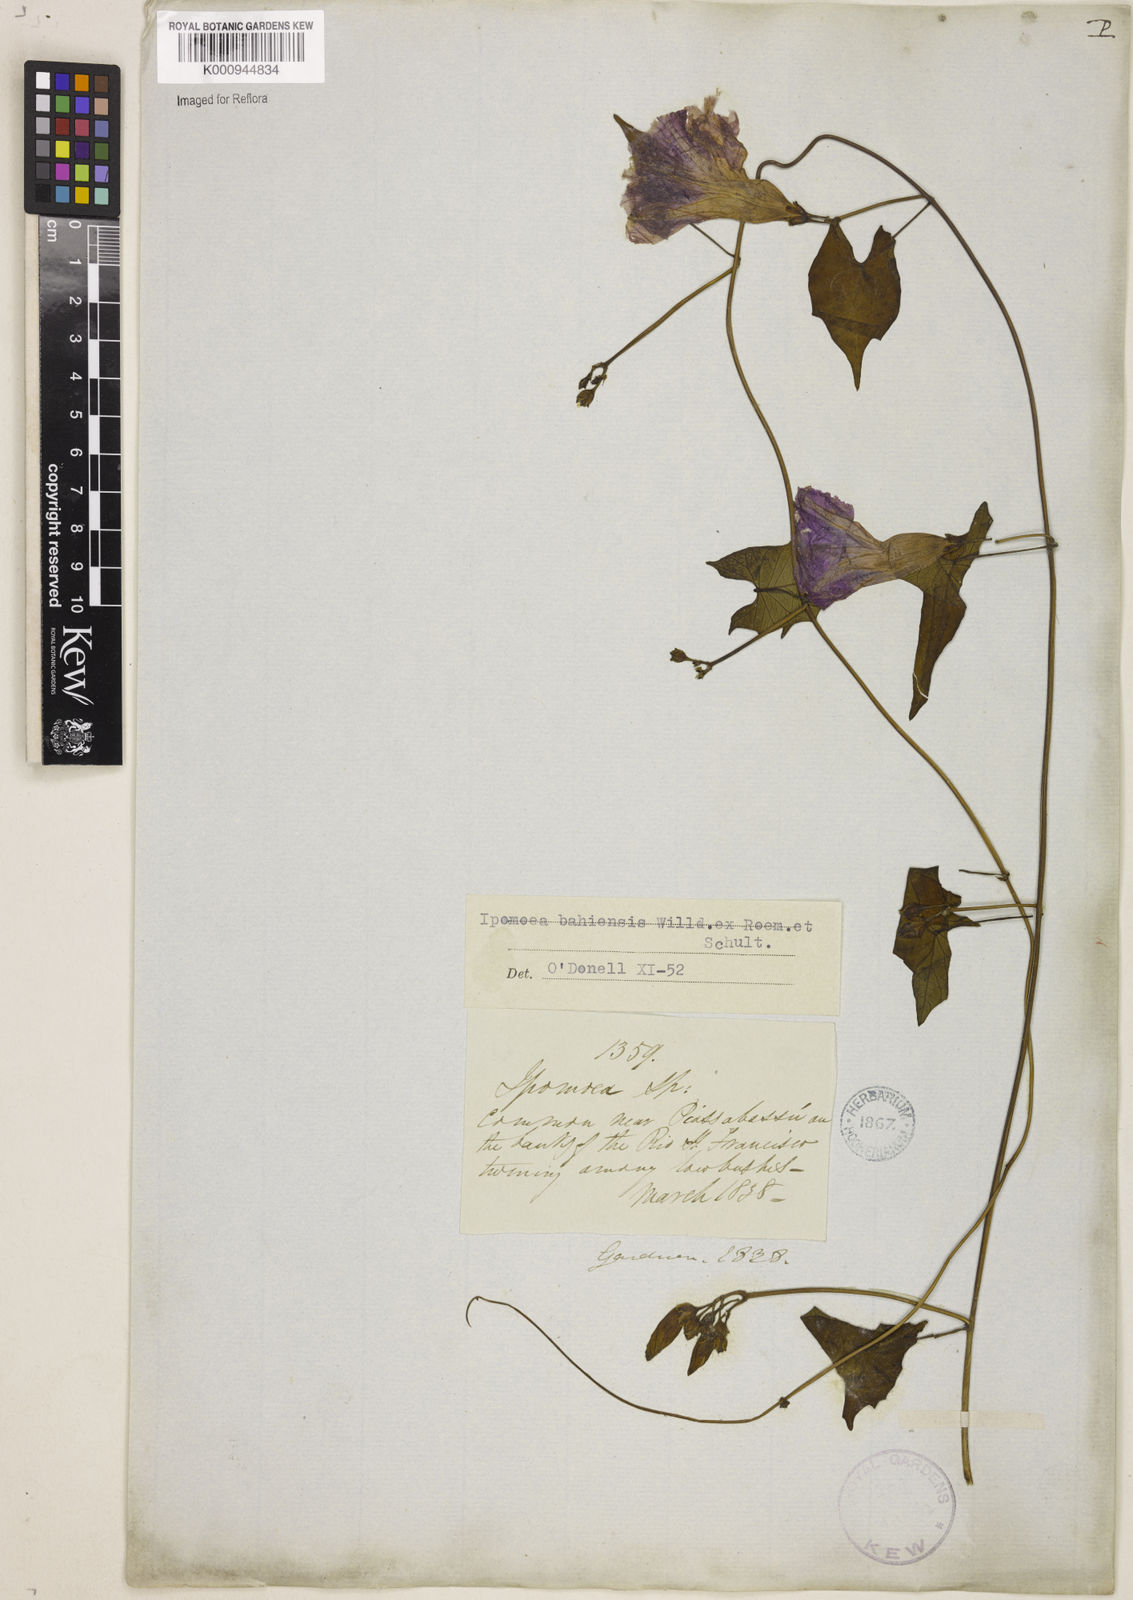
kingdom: Plantae
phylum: Tracheophyta
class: Magnoliopsida
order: Solanales
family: Convolvulaceae
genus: Ipomoea
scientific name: Ipomoea
